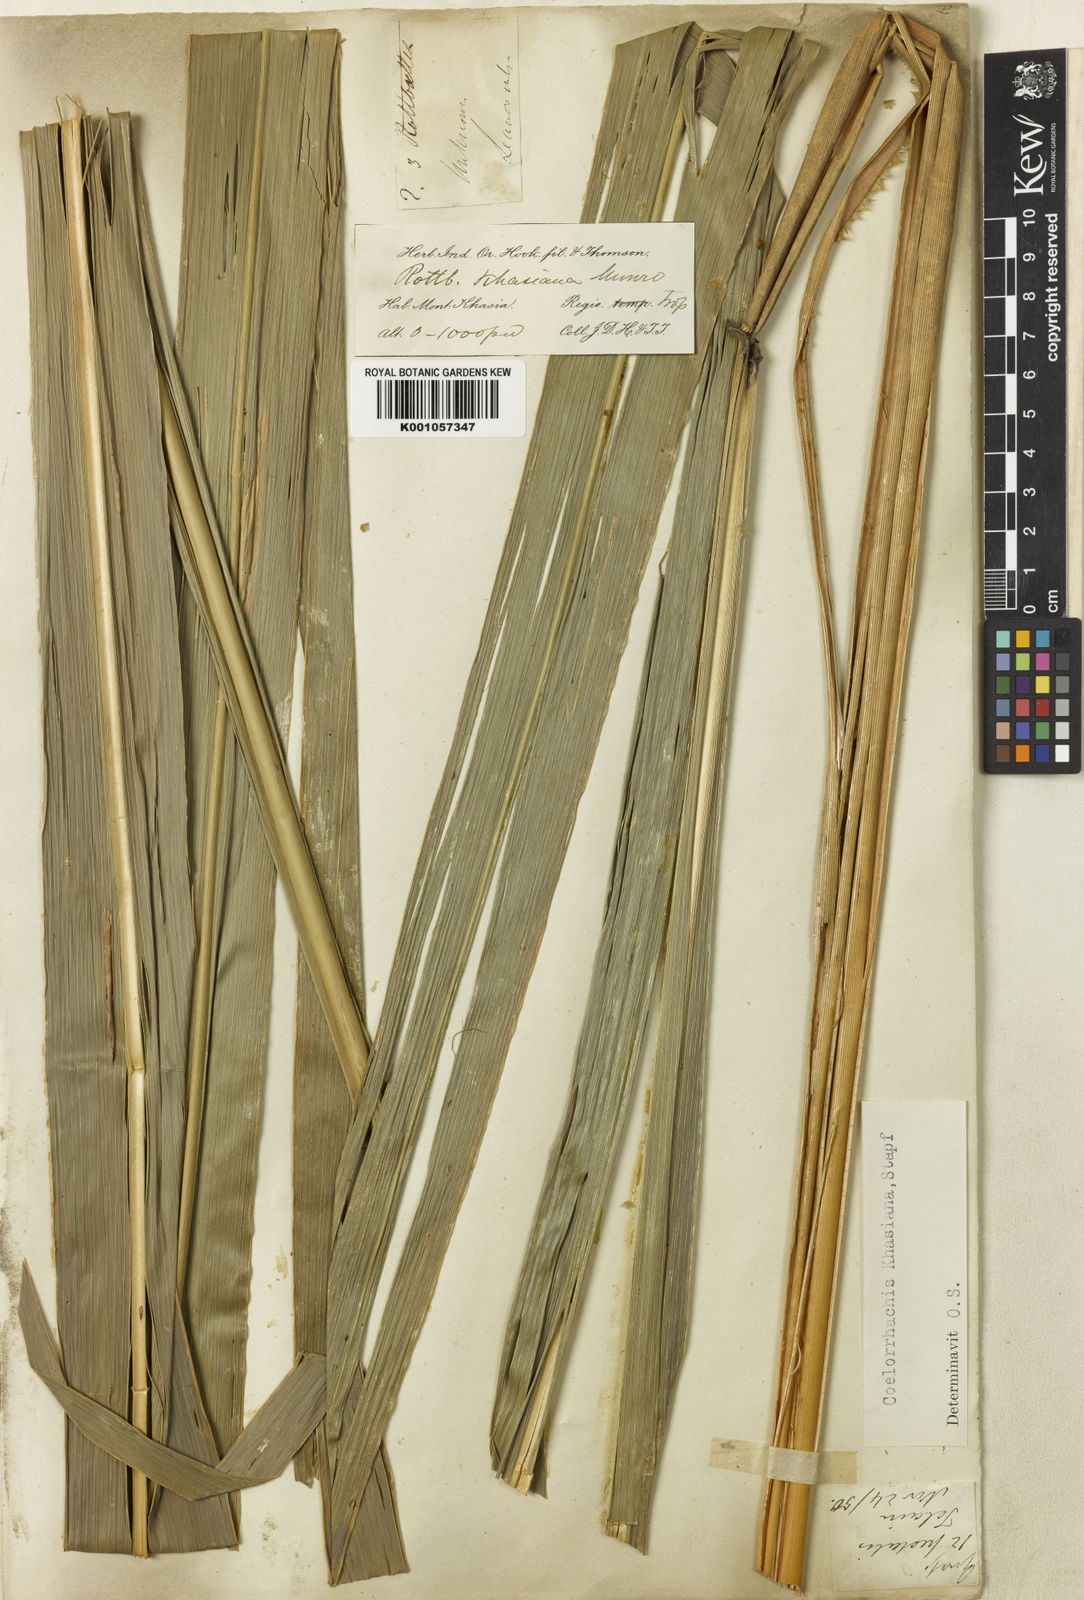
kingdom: Plantae
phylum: Tracheophyta
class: Liliopsida
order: Poales
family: Poaceae
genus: Rottboellia
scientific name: Rottboellia striata
